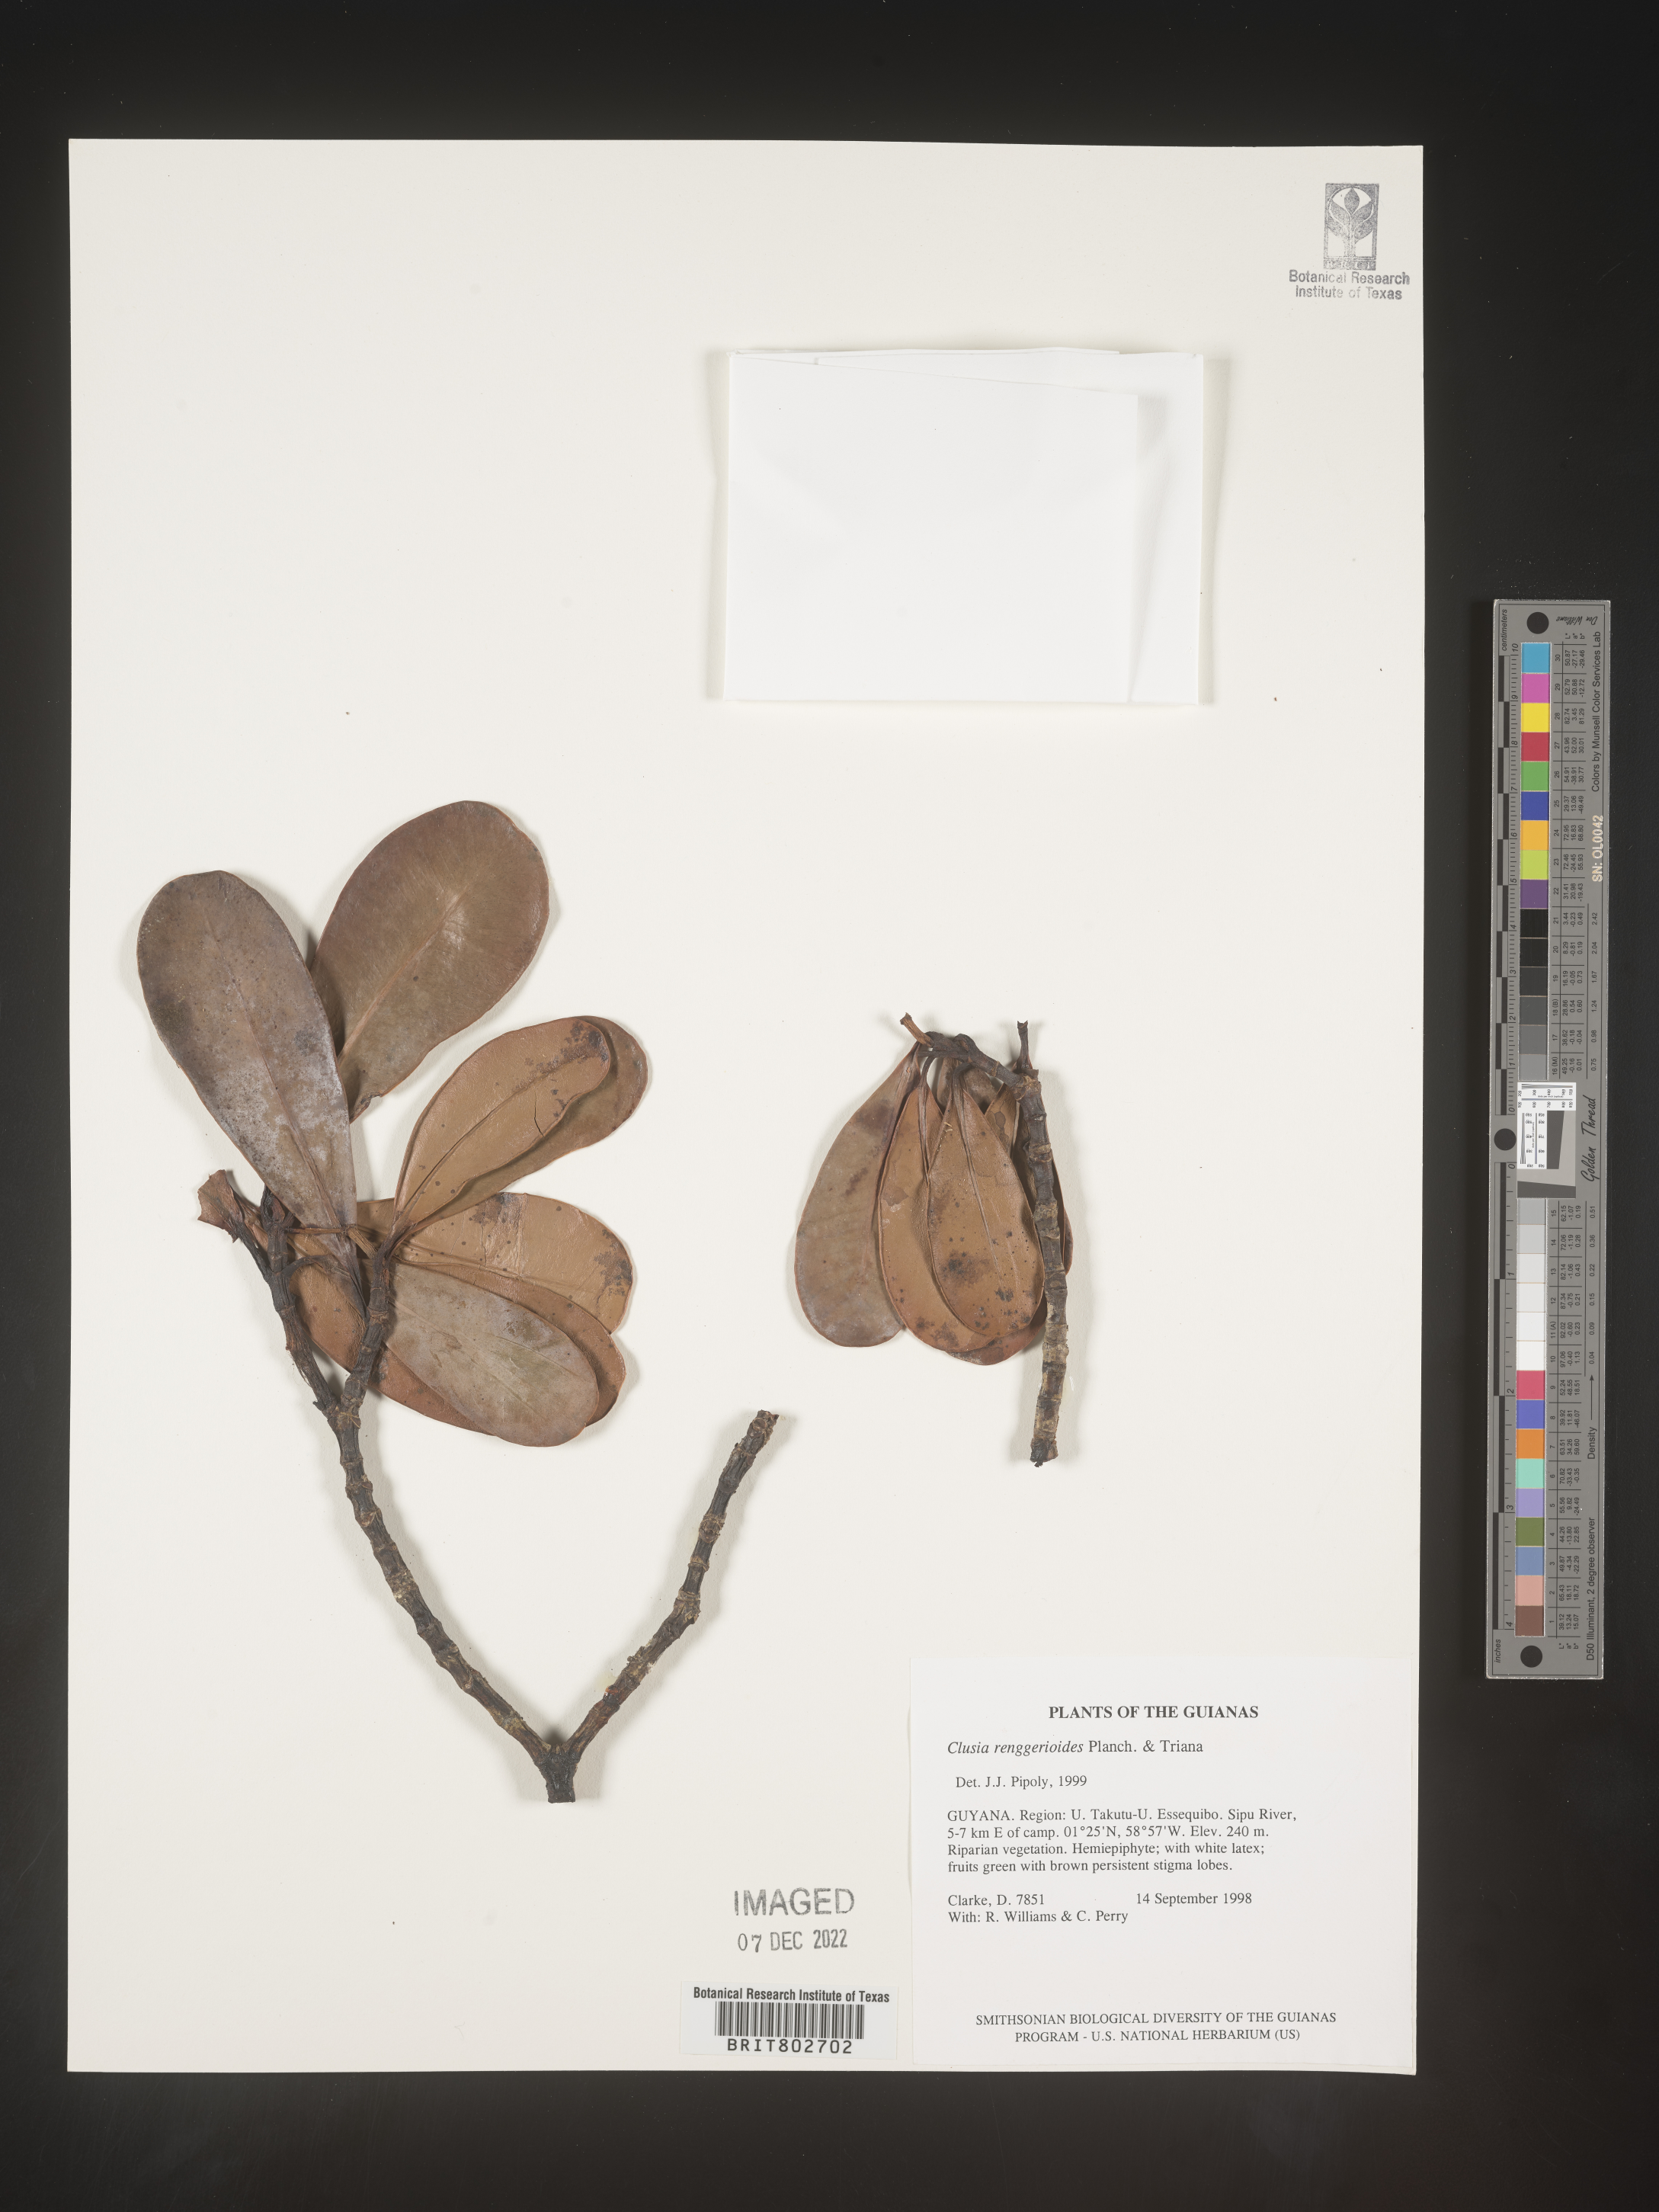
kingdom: Plantae
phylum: Tracheophyta
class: Magnoliopsida
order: Malpighiales
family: Clusiaceae
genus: Clusia
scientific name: Clusia renggerioides
